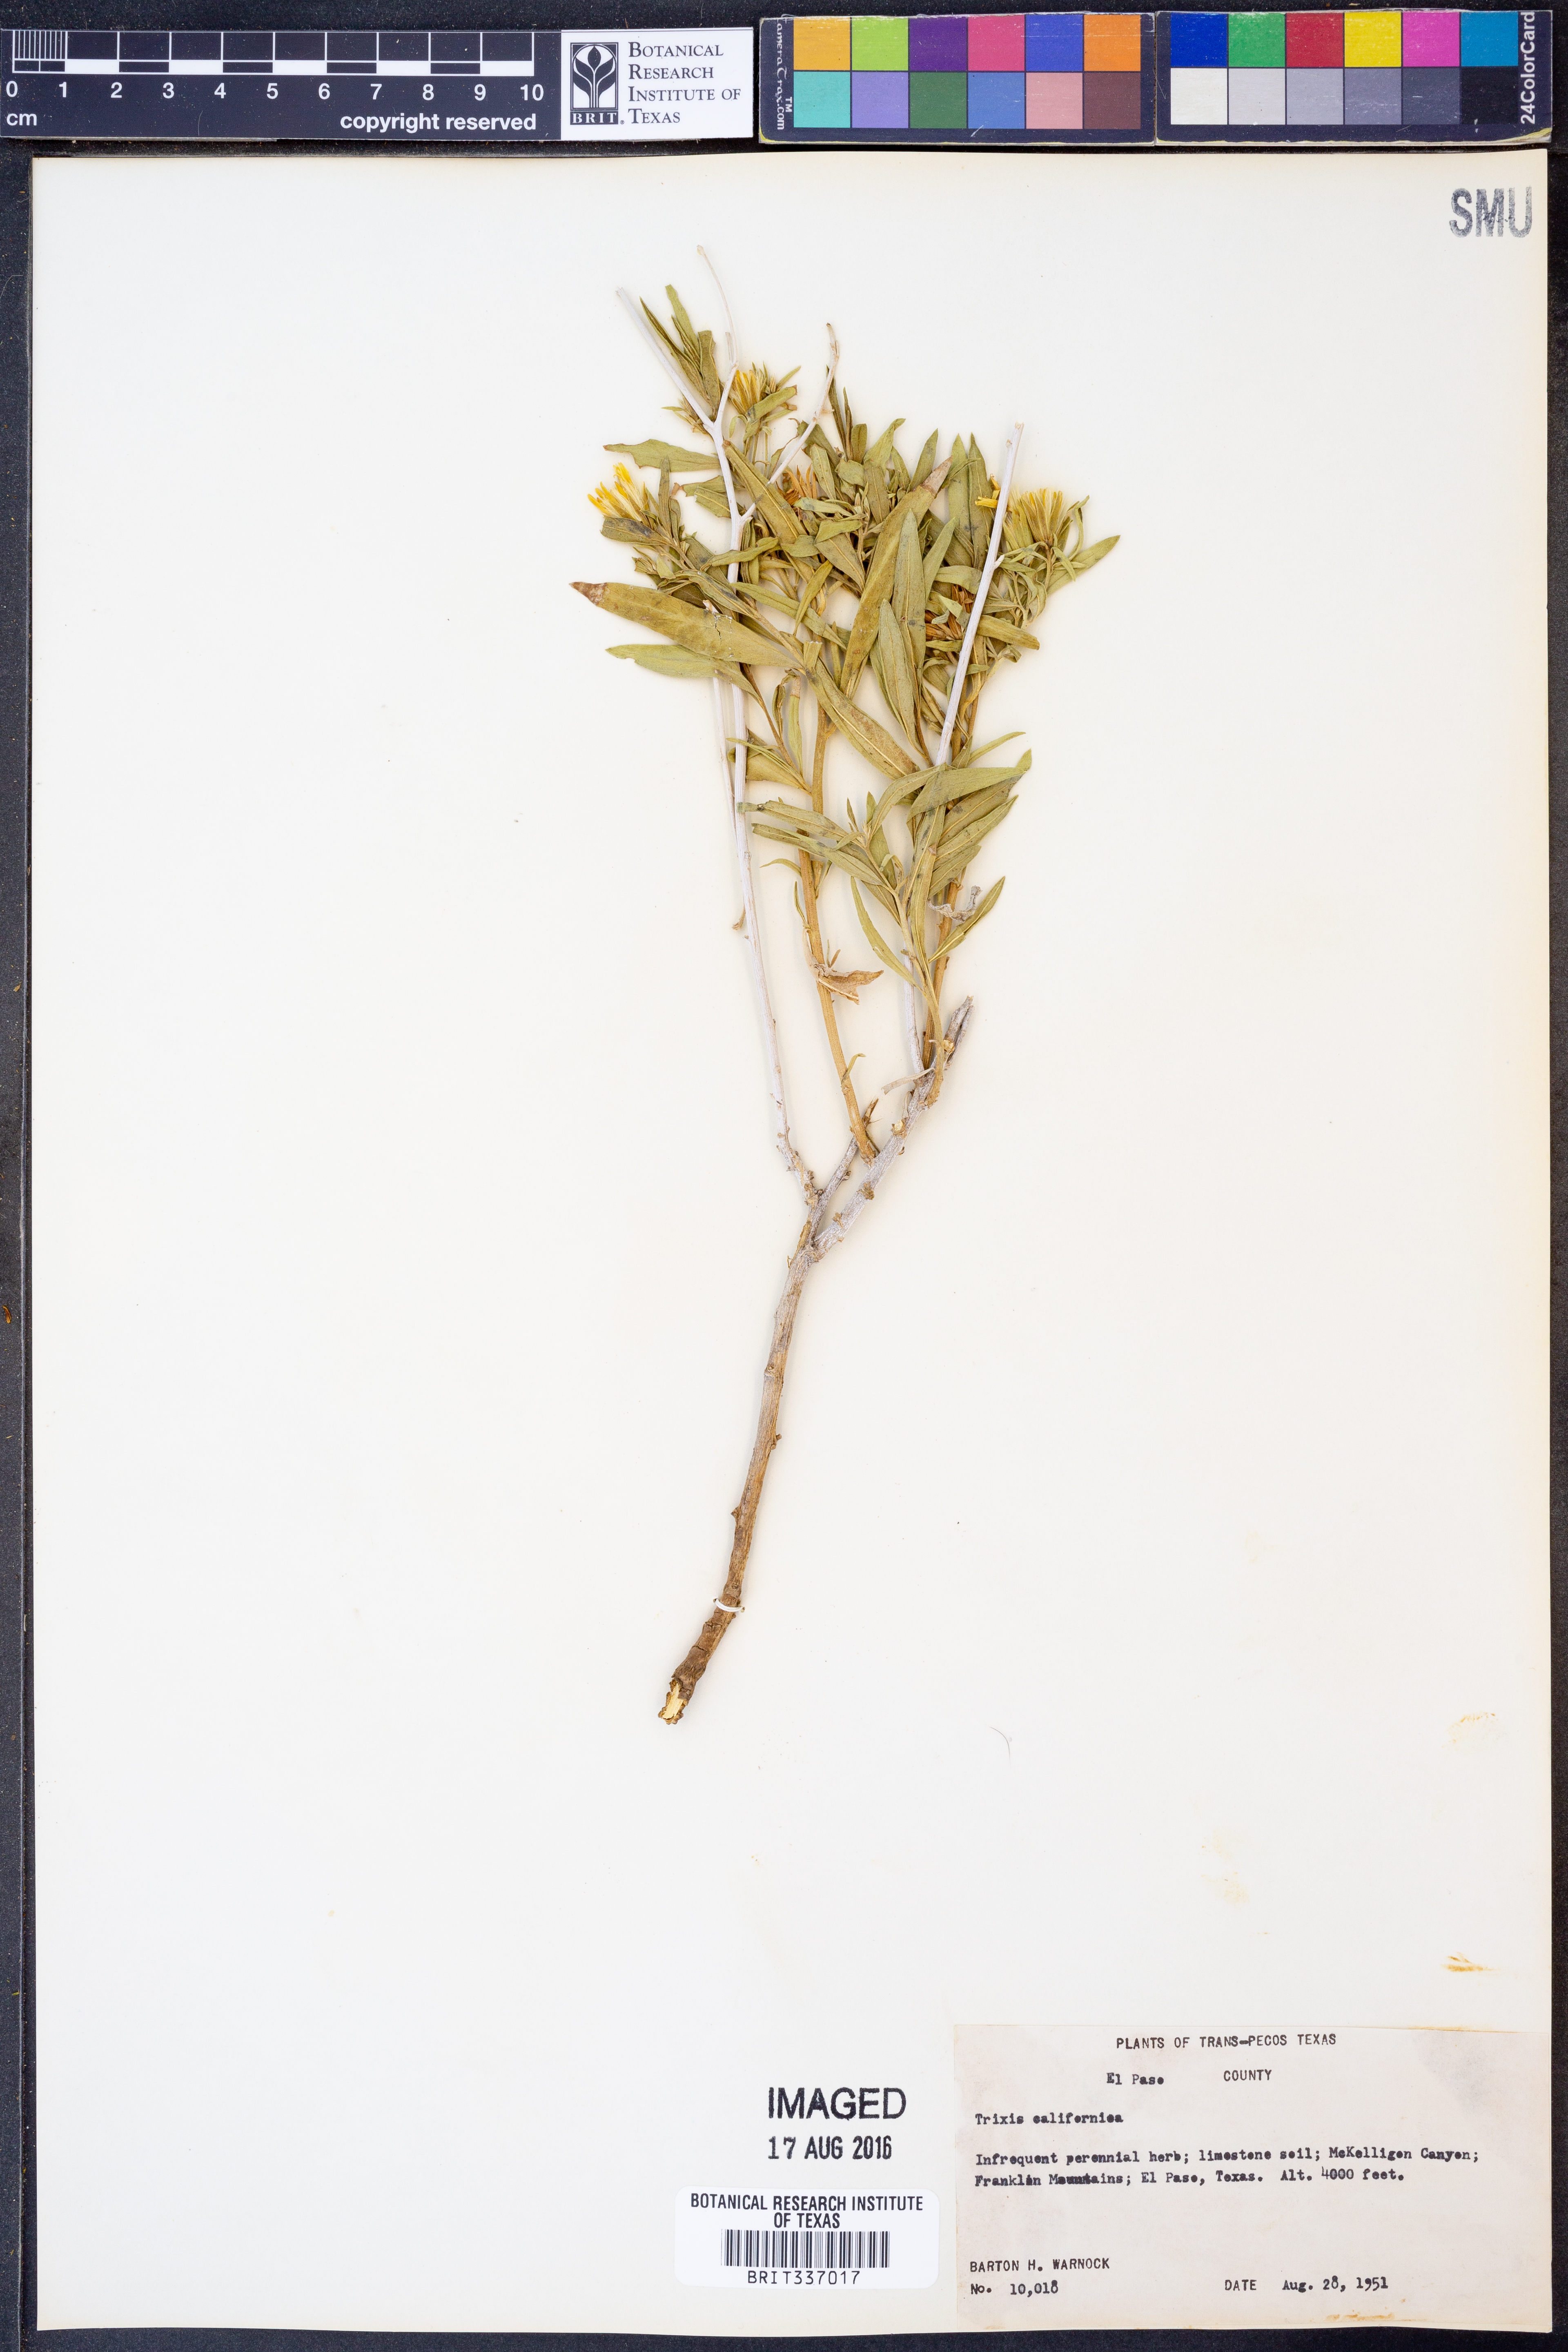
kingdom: Plantae
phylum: Tracheophyta
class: Magnoliopsida
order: Asterales
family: Asteraceae
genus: Trixis
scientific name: Trixis californica
